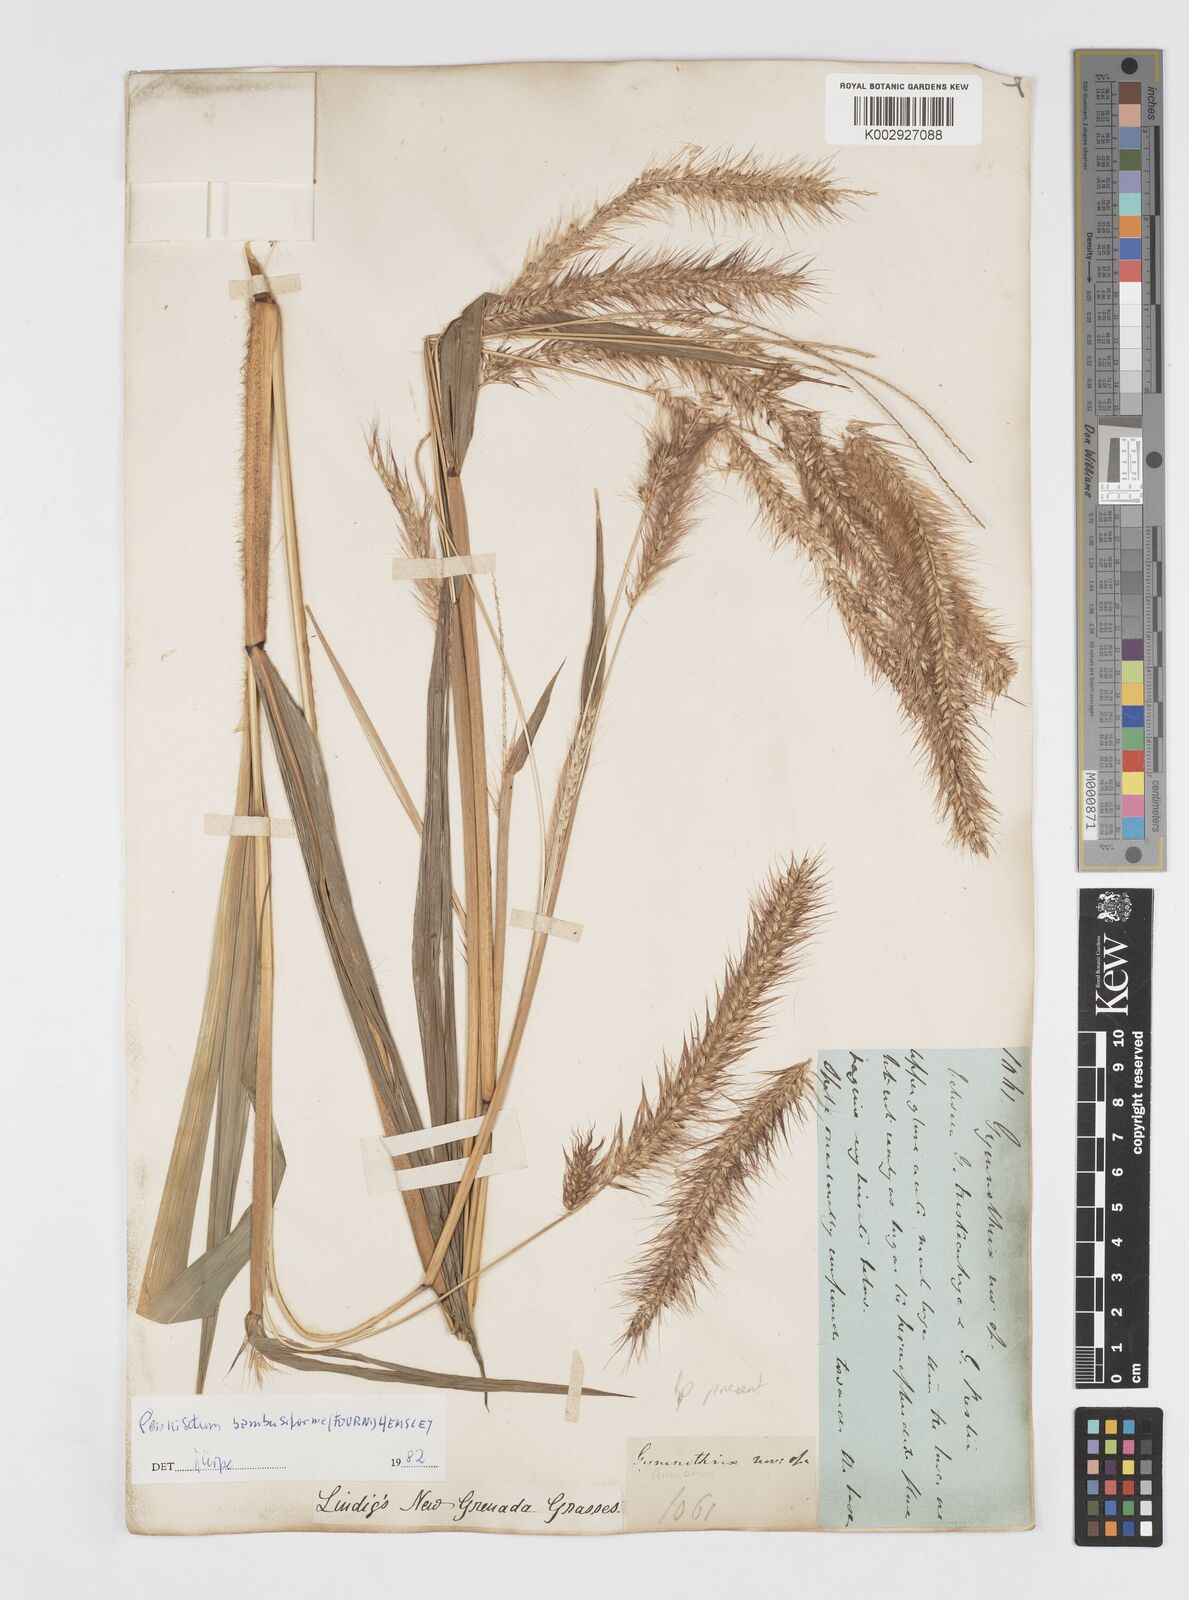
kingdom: Plantae
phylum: Tracheophyta
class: Liliopsida
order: Poales
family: Poaceae
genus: Cenchrus
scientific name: Cenchrus tristachyus
